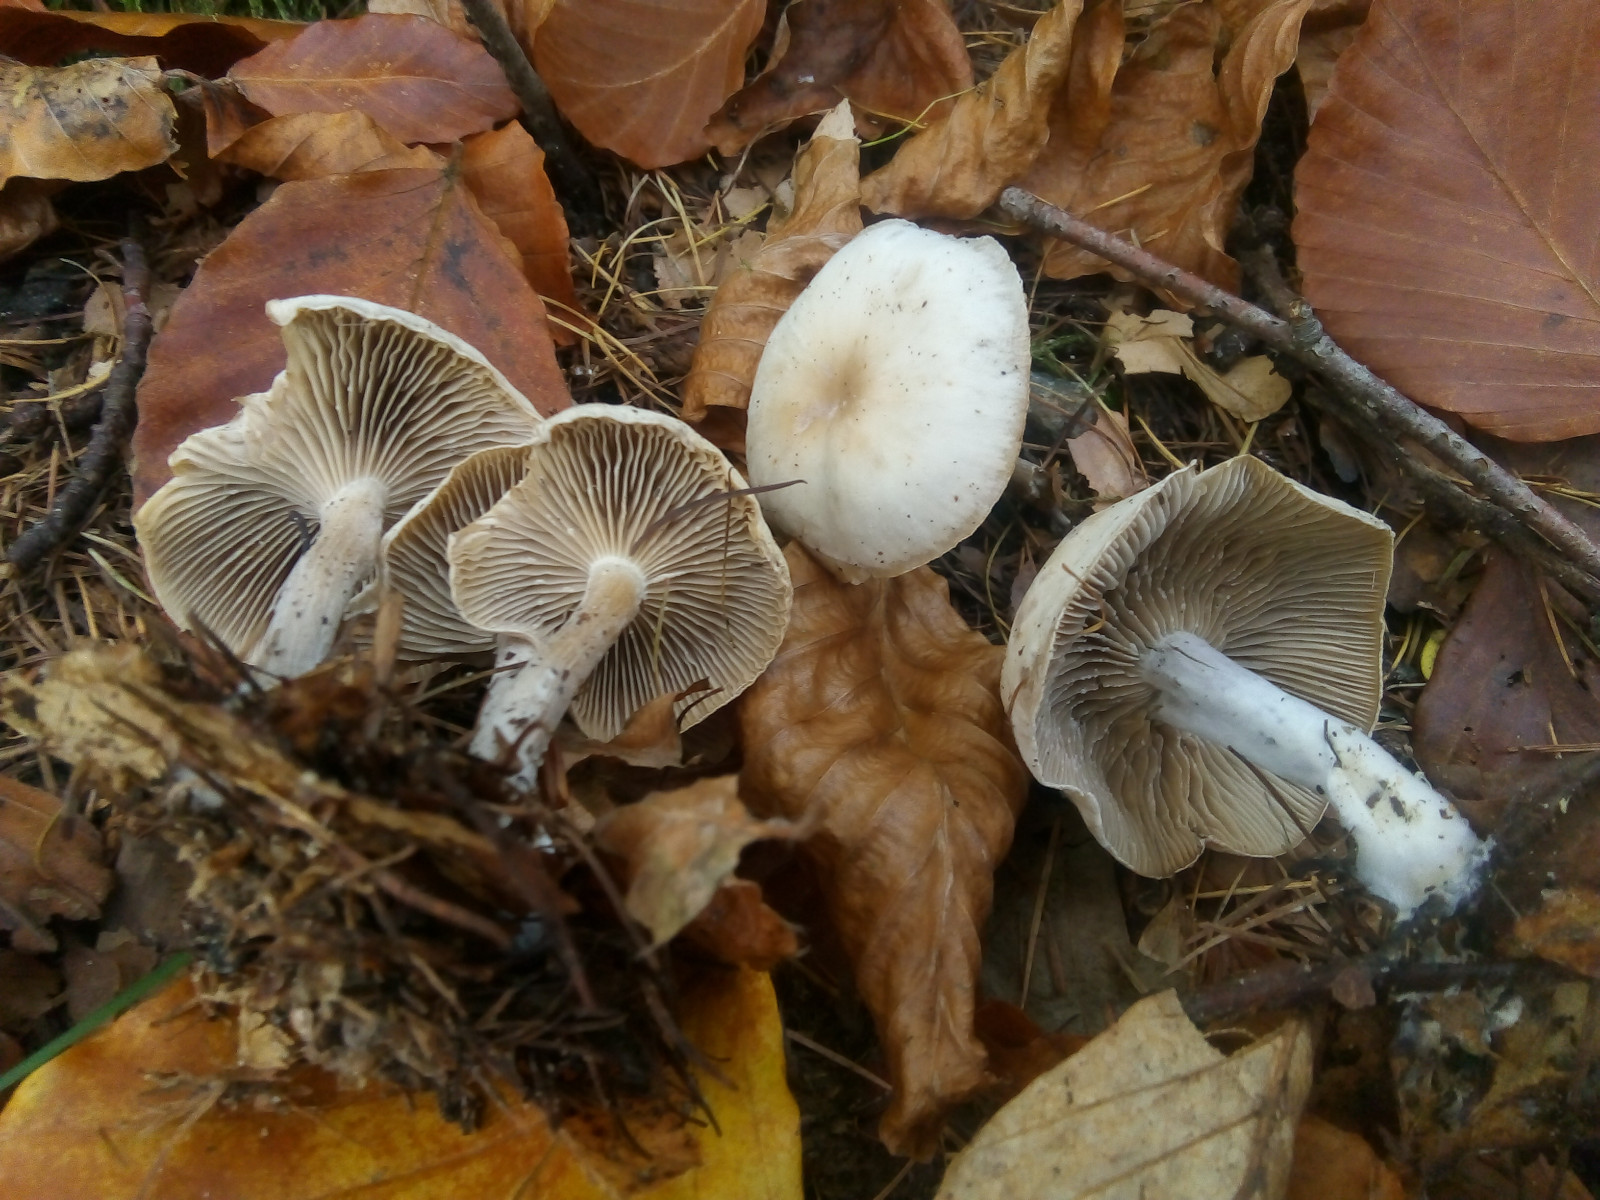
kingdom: Fungi
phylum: Basidiomycota
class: Agaricomycetes
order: Agaricales
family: Tricholomataceae
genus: Clitocybe
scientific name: Clitocybe
